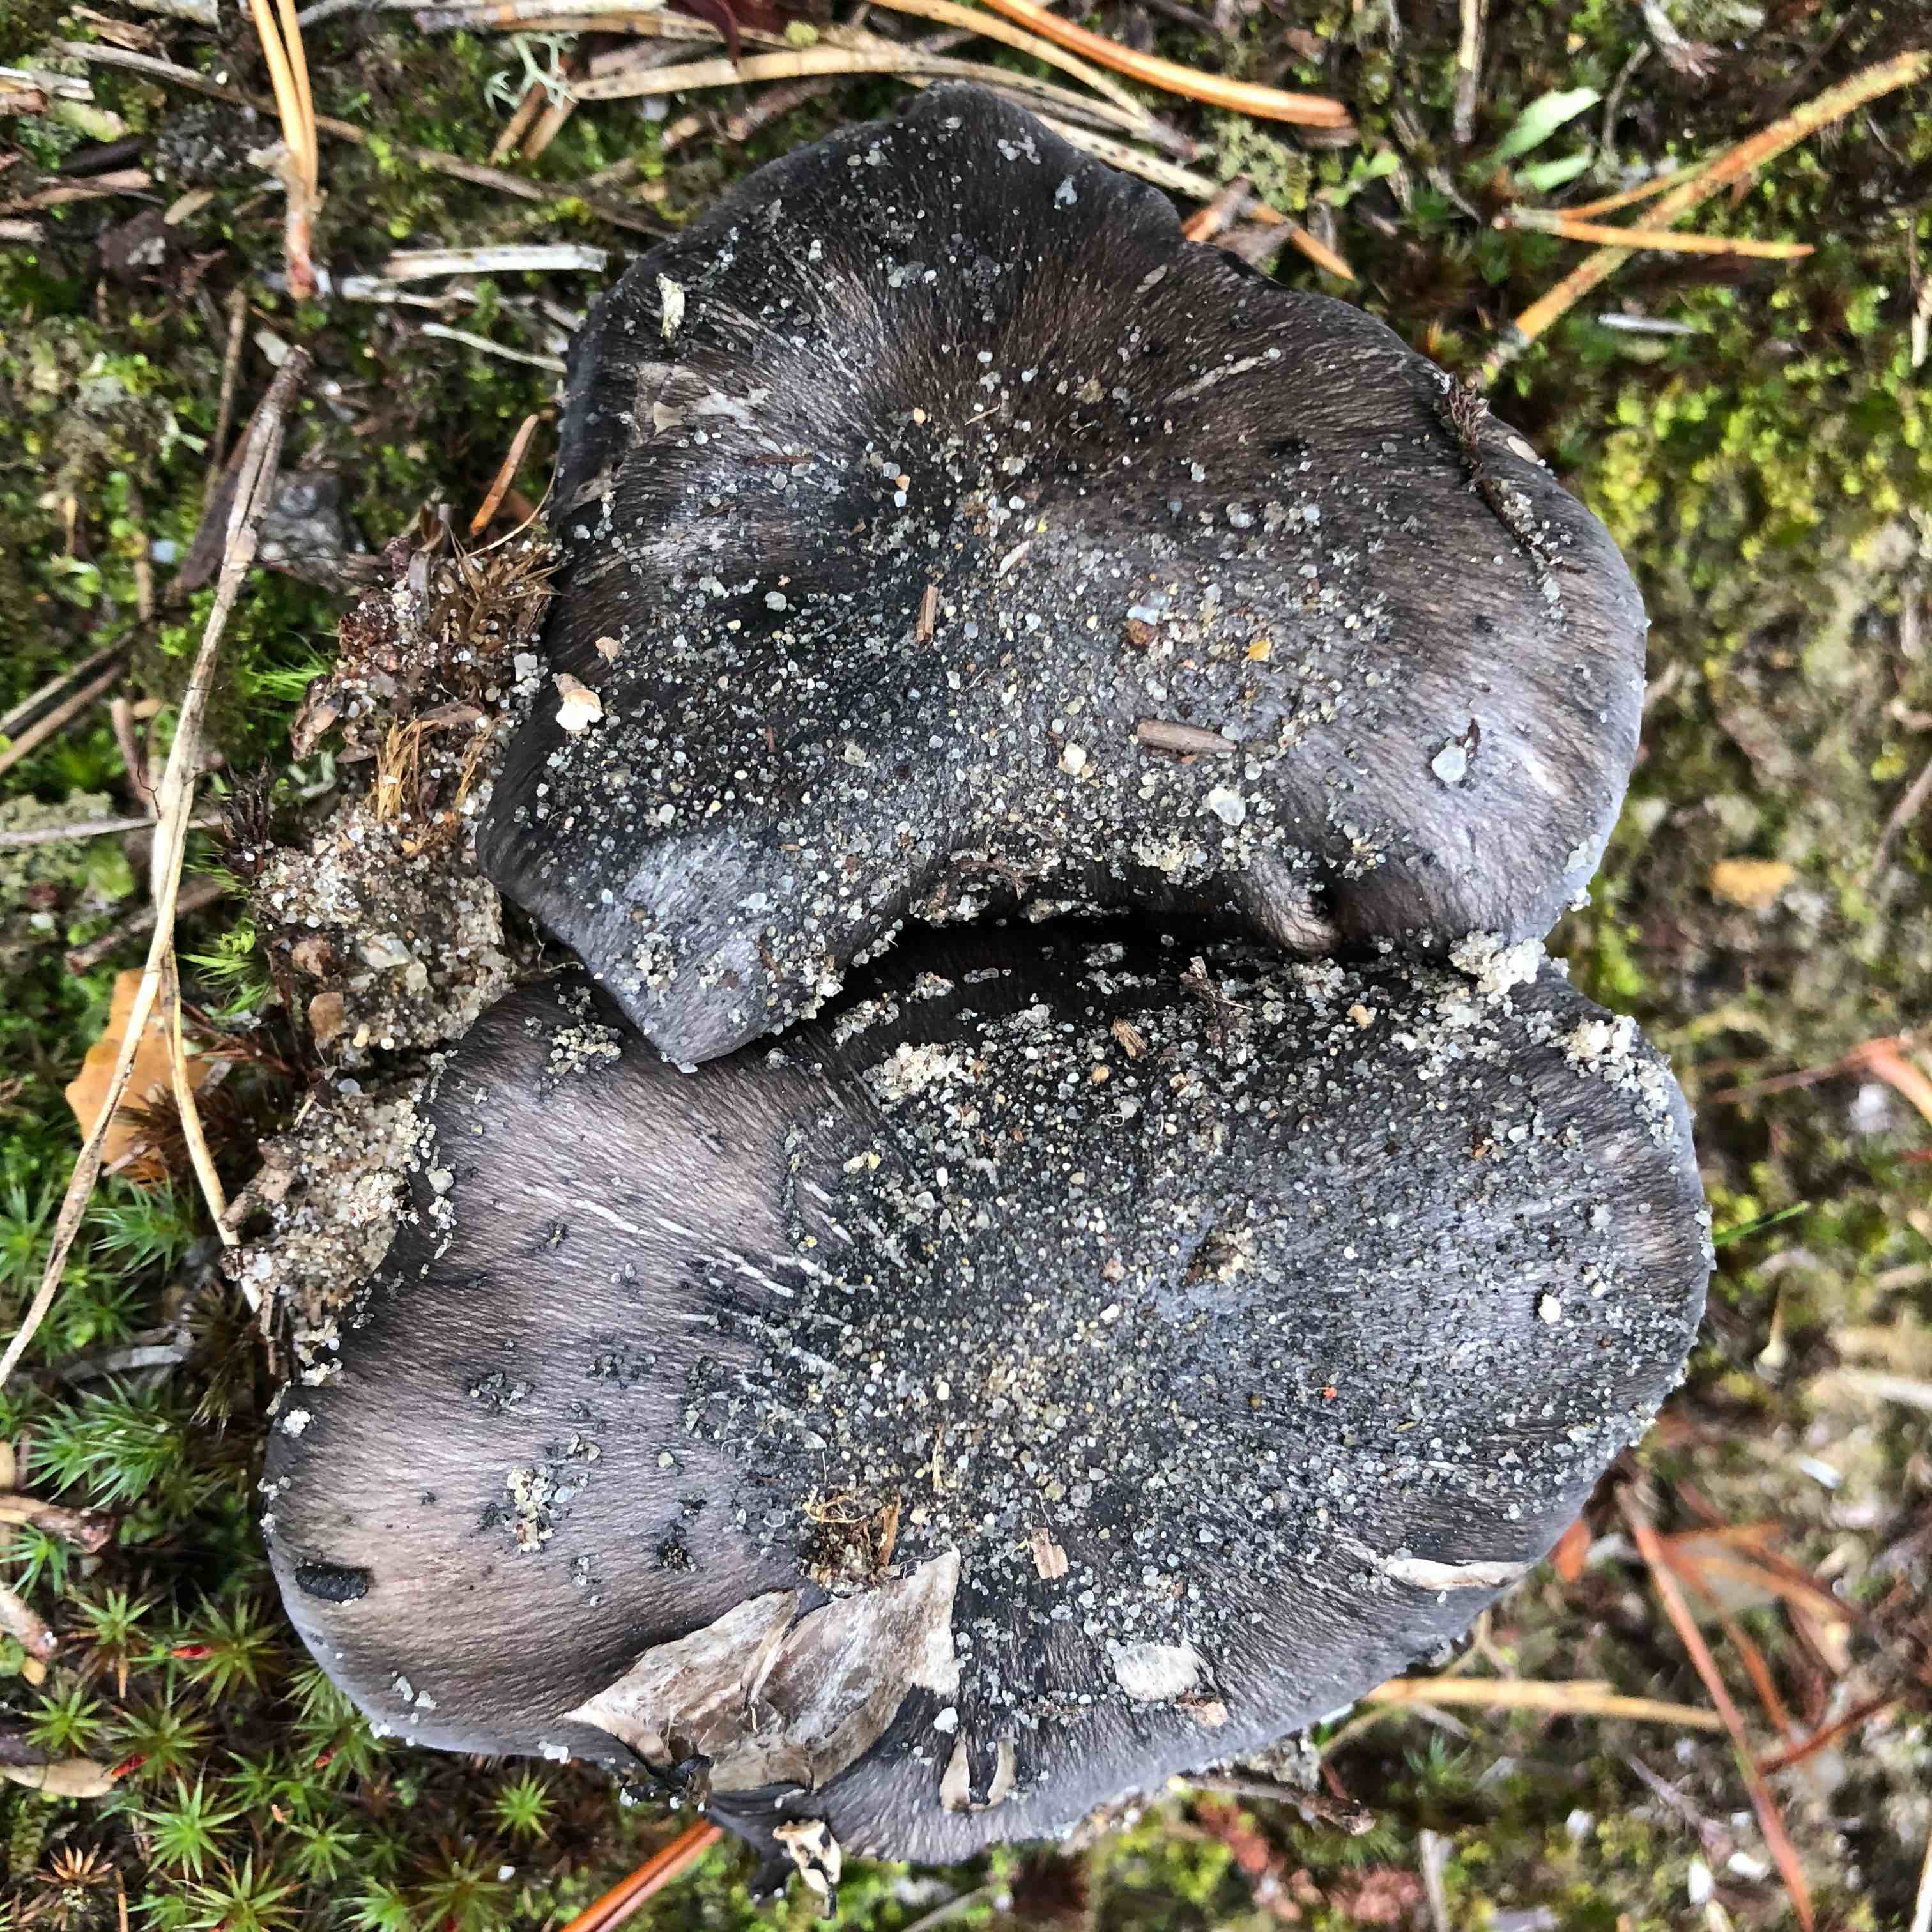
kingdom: Fungi
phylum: Basidiomycota
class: Agaricomycetes
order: Agaricales
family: Tricholomataceae
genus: Tricholoma
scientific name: Tricholoma portentosum
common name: grå ridderhat
